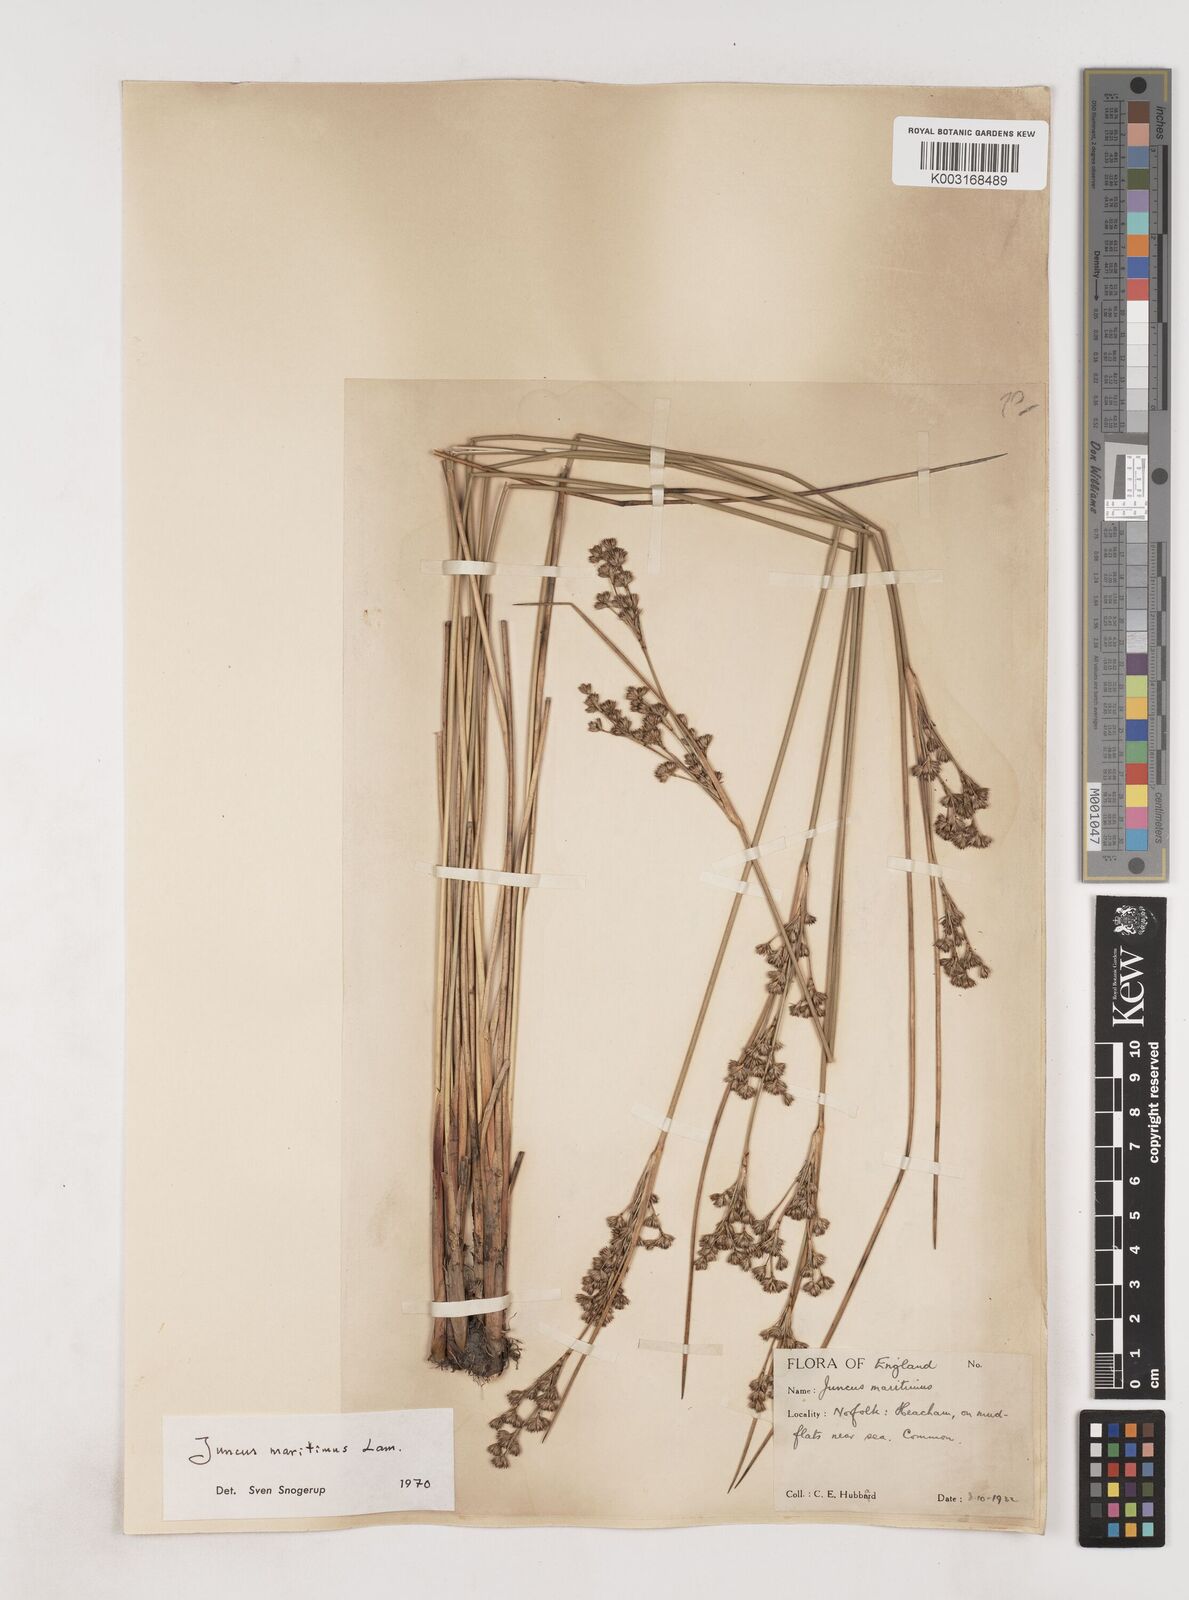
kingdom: Plantae
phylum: Tracheophyta
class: Liliopsida
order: Poales
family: Juncaceae
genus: Juncus
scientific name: Juncus maritimus
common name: Sea rush
